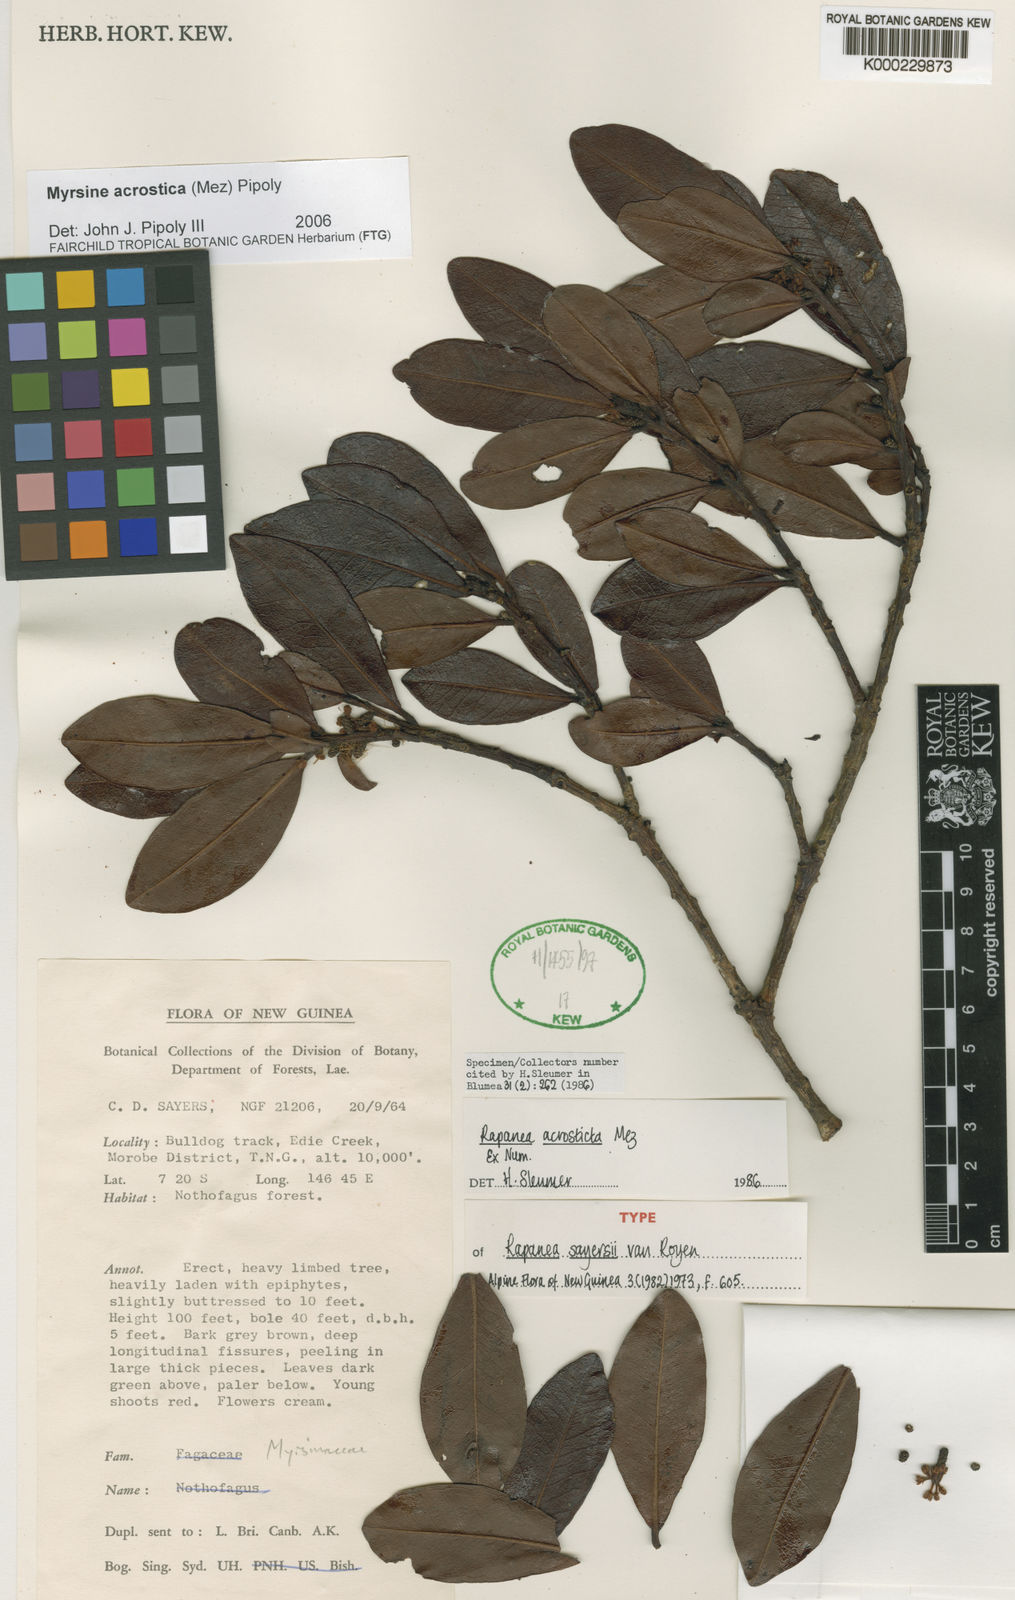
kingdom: Plantae
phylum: Tracheophyta
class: Magnoliopsida
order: Ericales
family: Primulaceae
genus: Myrsine
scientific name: Myrsine
